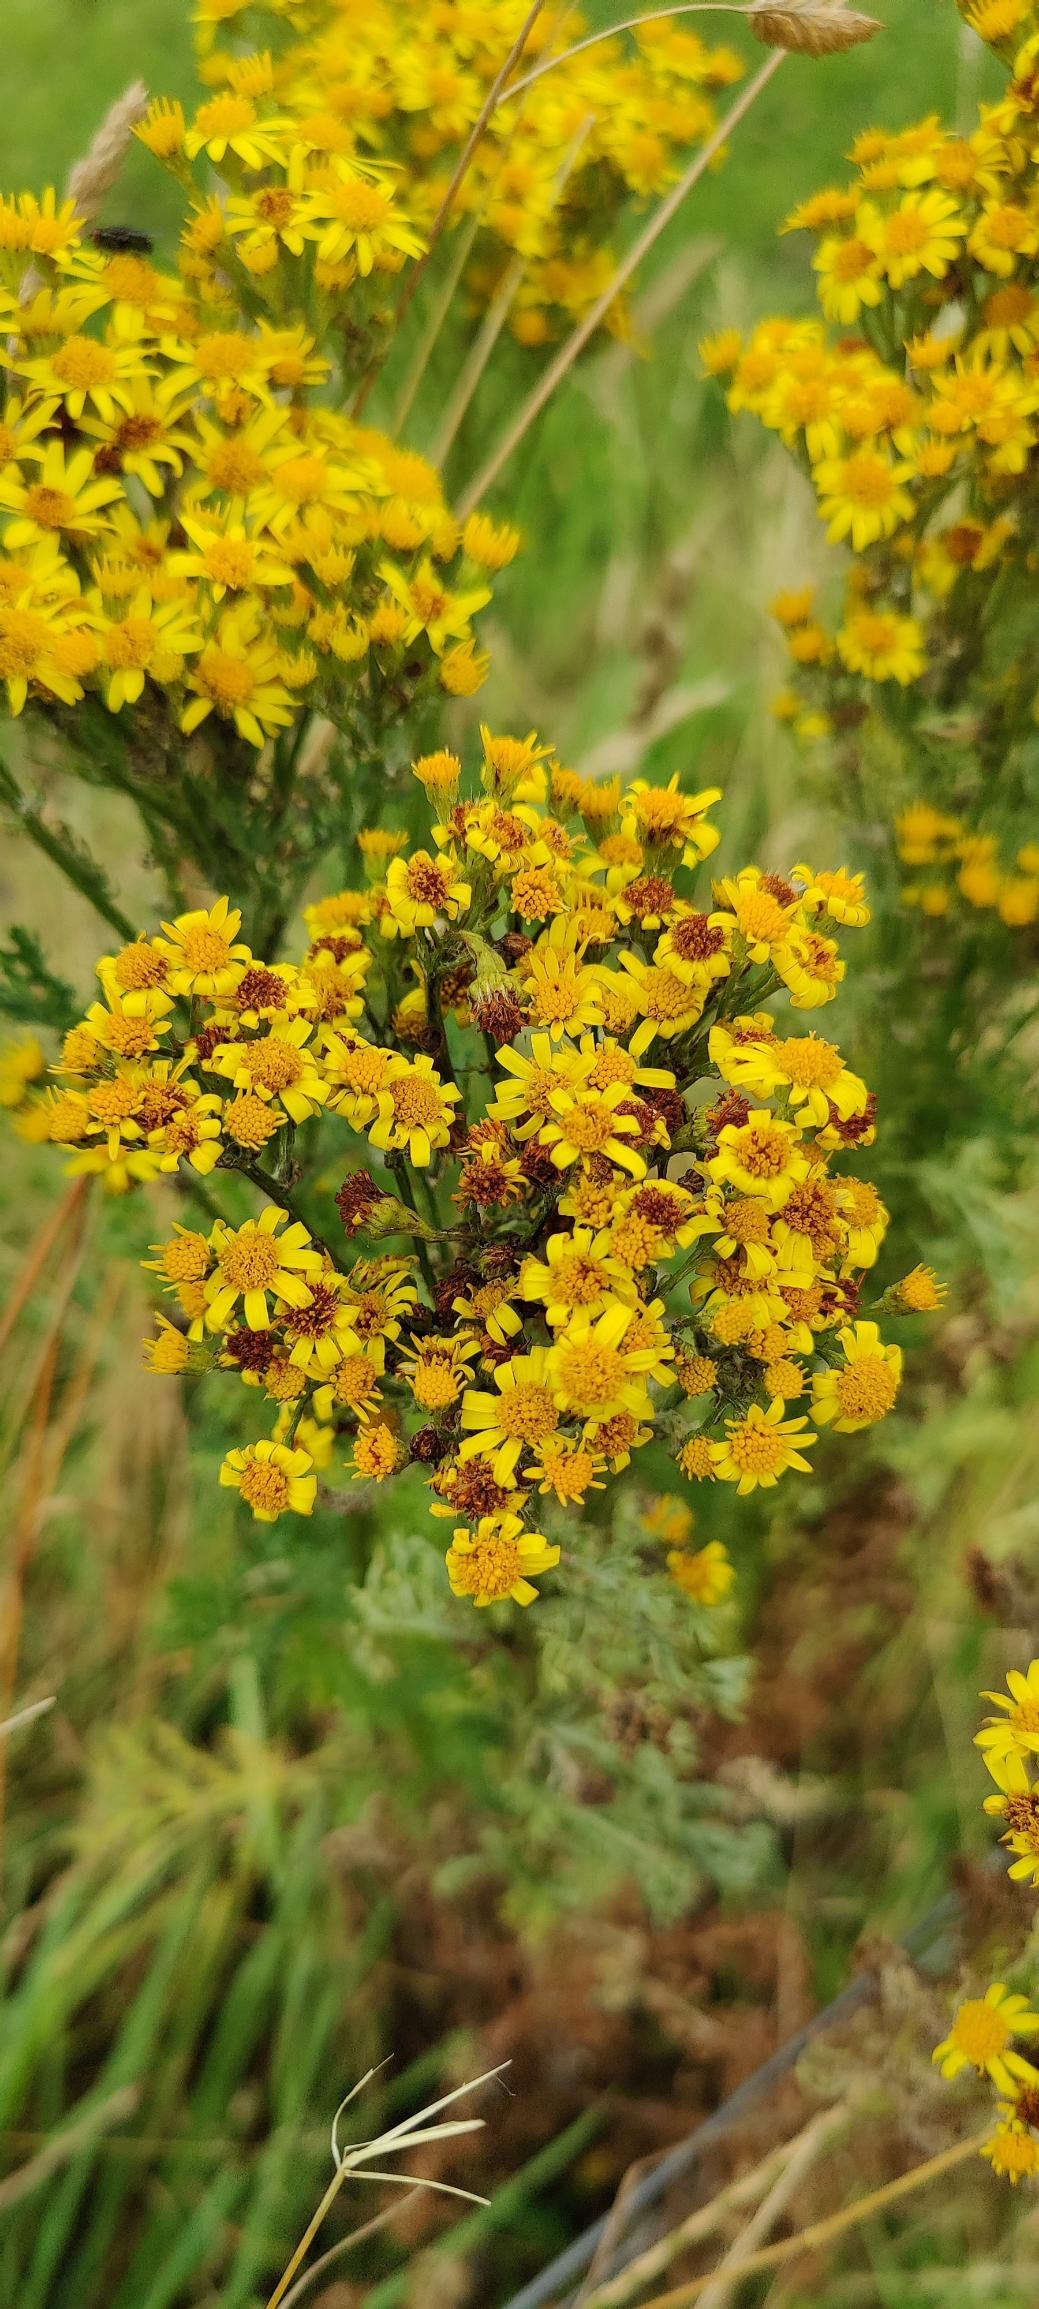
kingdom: Plantae
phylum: Tracheophyta
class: Magnoliopsida
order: Asterales
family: Asteraceae
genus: Jacobaea
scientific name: Jacobaea vulgaris
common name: Eng-brandbæger
